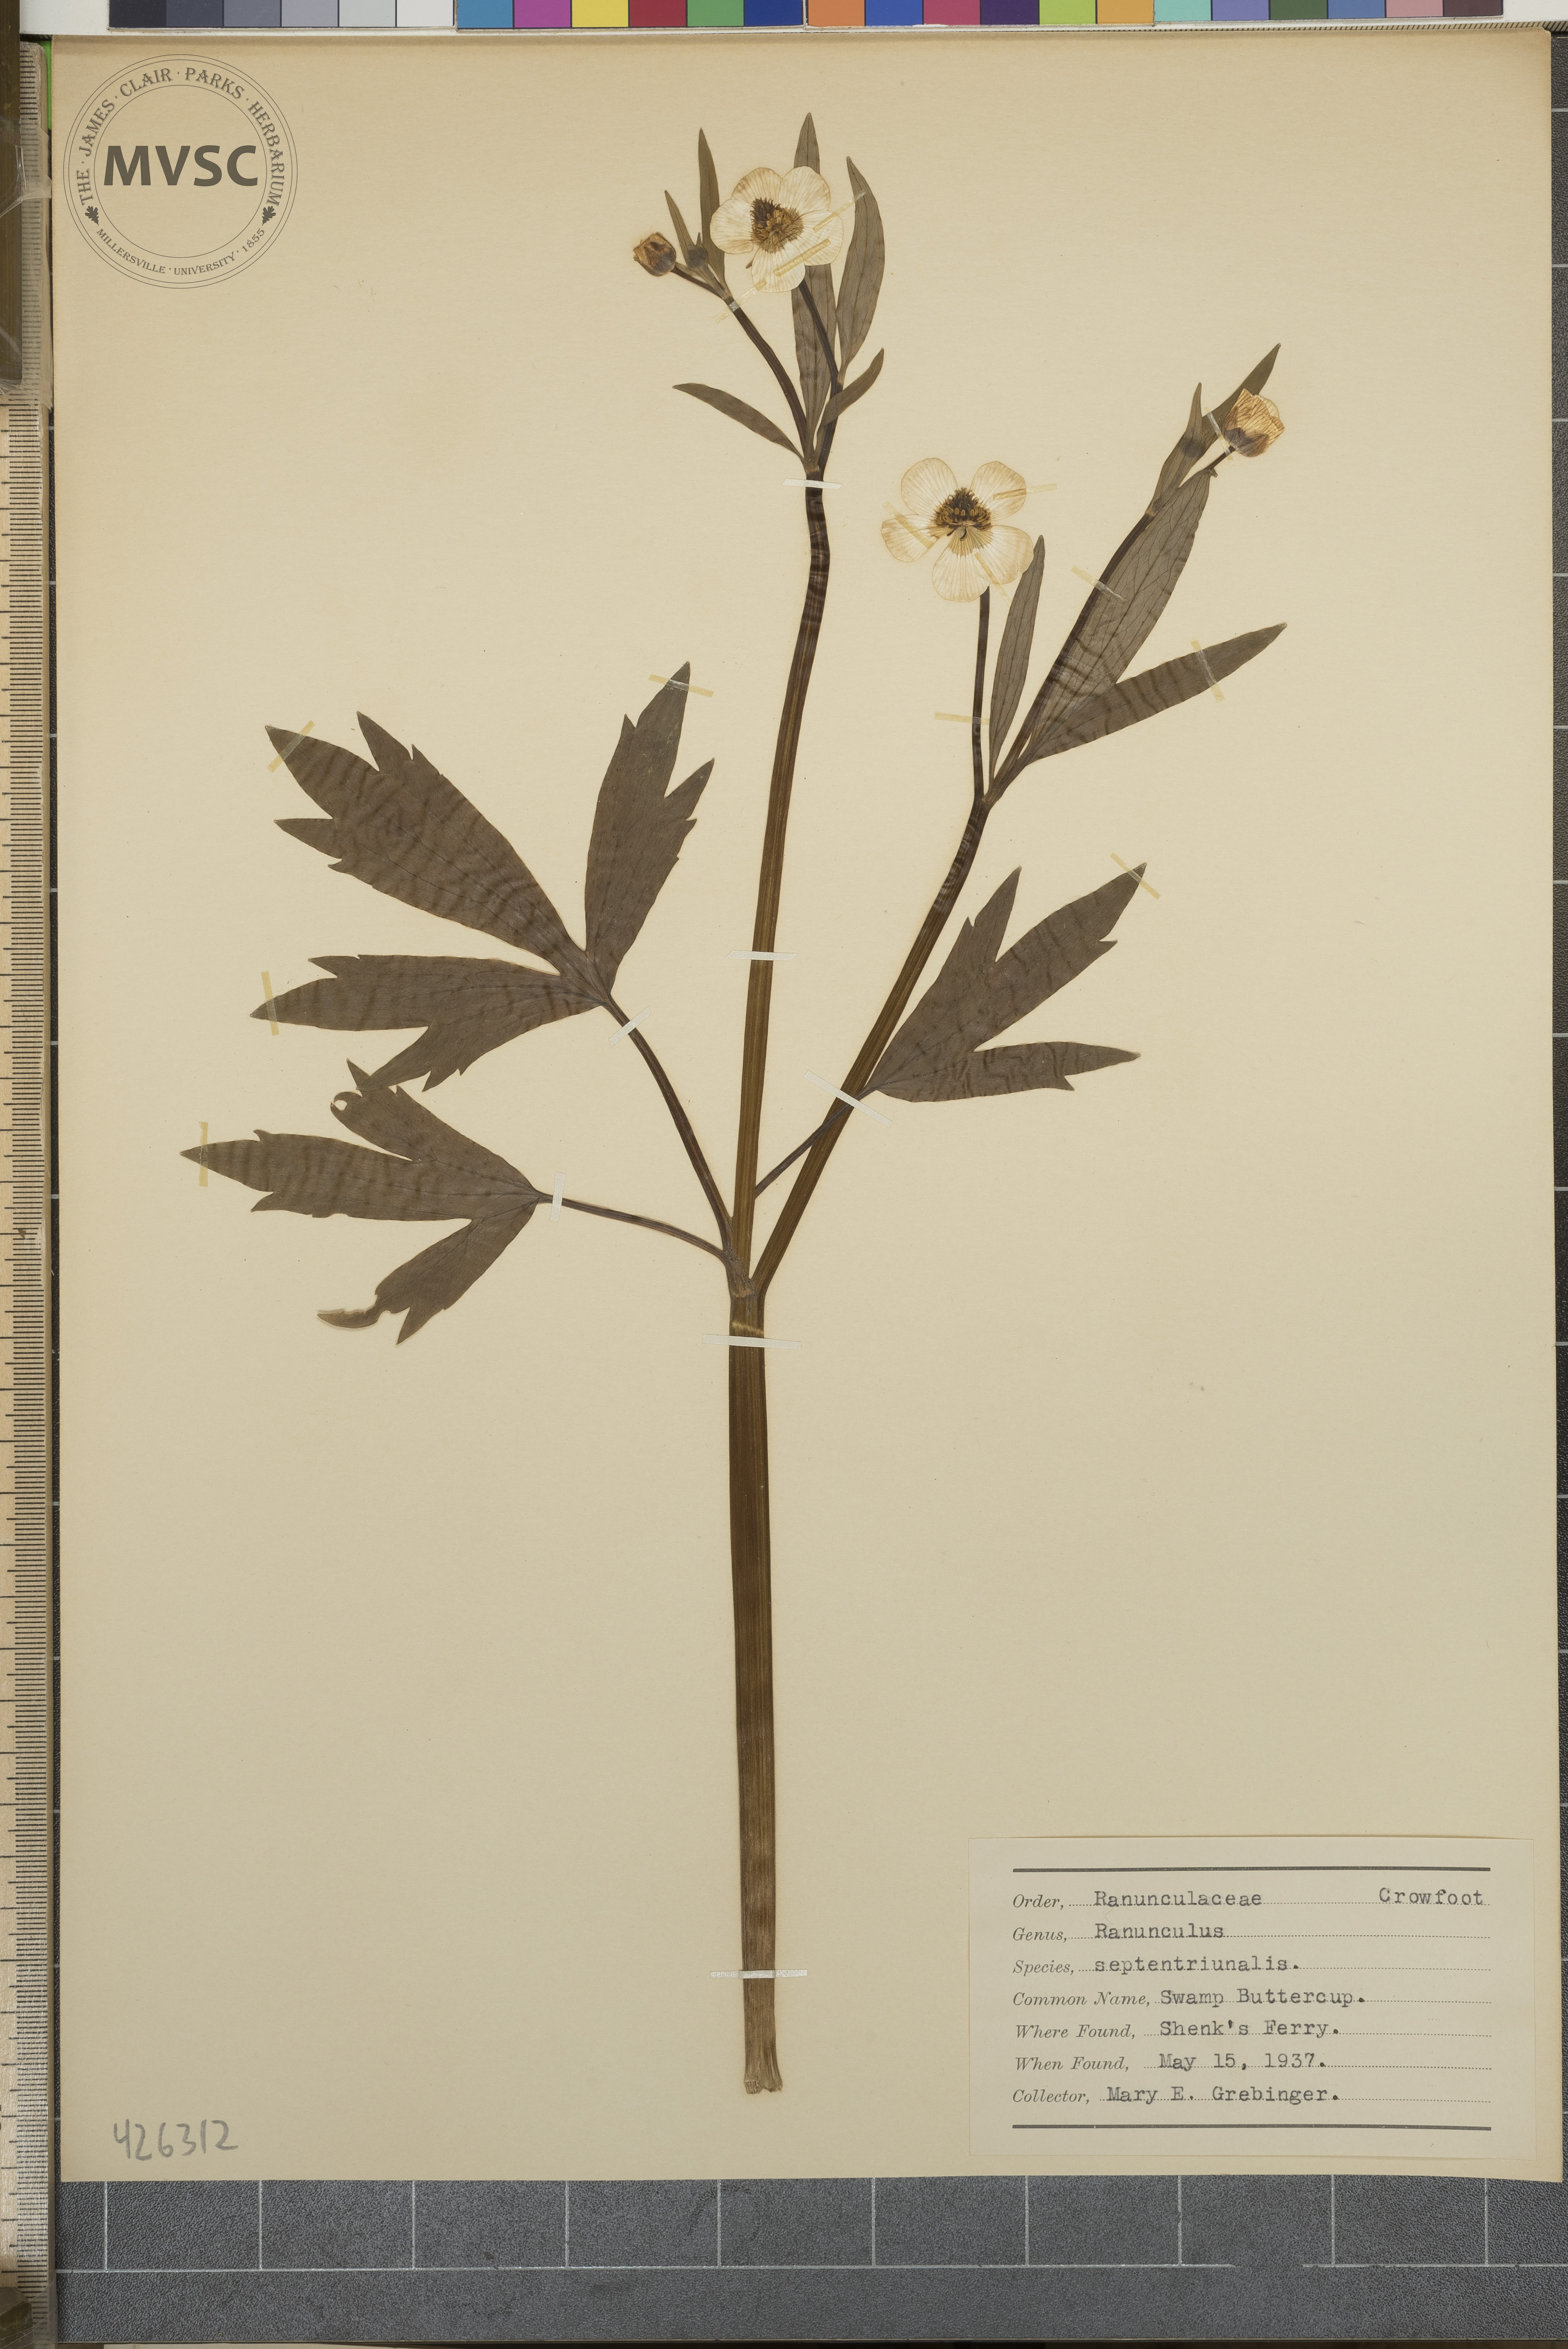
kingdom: Plantae
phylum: Tracheophyta
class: Magnoliopsida
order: Ranunculales
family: Ranunculaceae
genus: Ranunculus
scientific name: Ranunculus hispidus
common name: Swamp Buttercup
